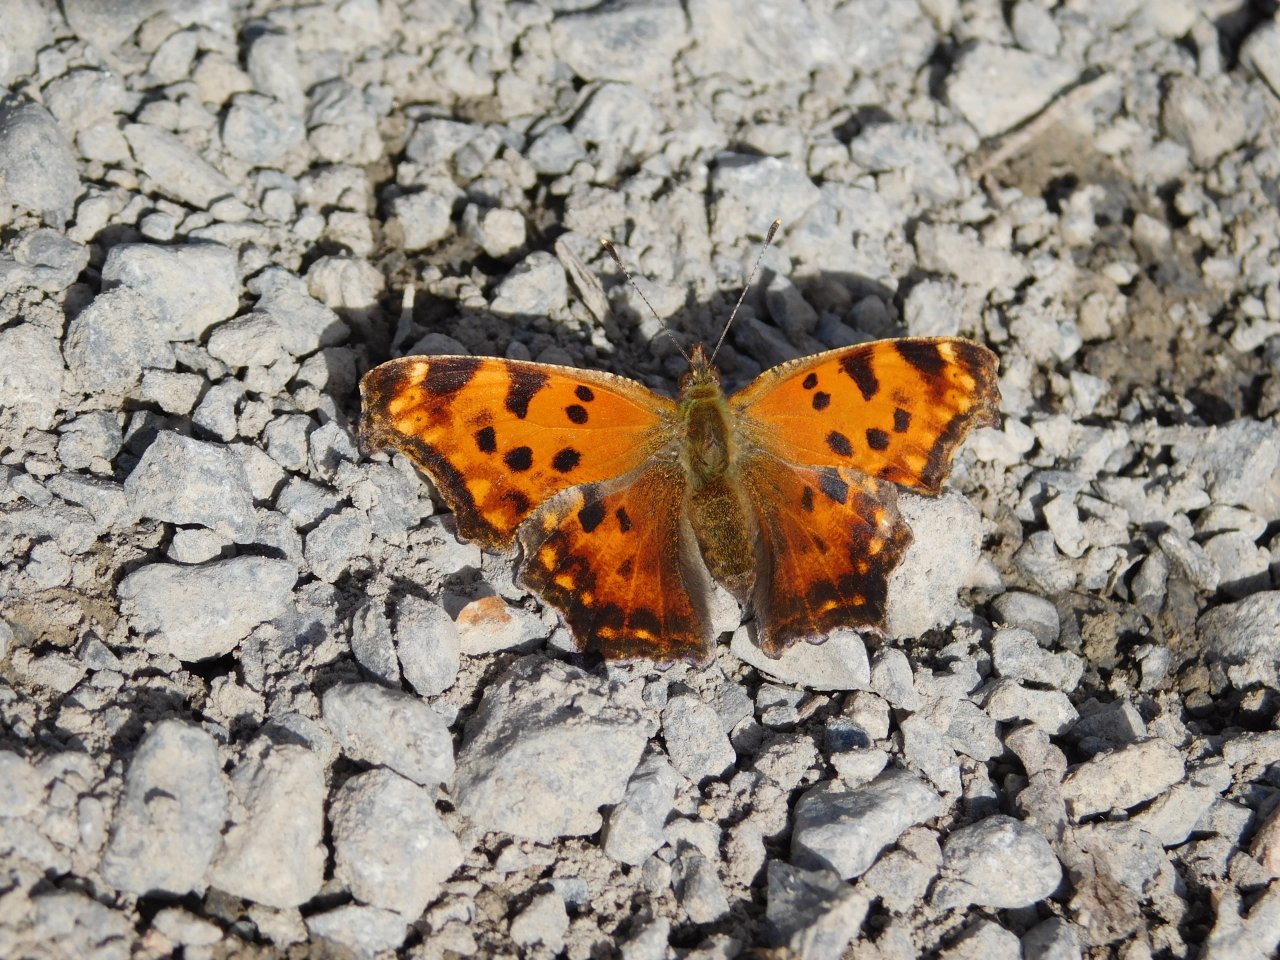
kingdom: Animalia
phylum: Arthropoda
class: Insecta
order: Lepidoptera
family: Nymphalidae
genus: Polygonia
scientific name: Polygonia comma
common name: Eastern Comma
